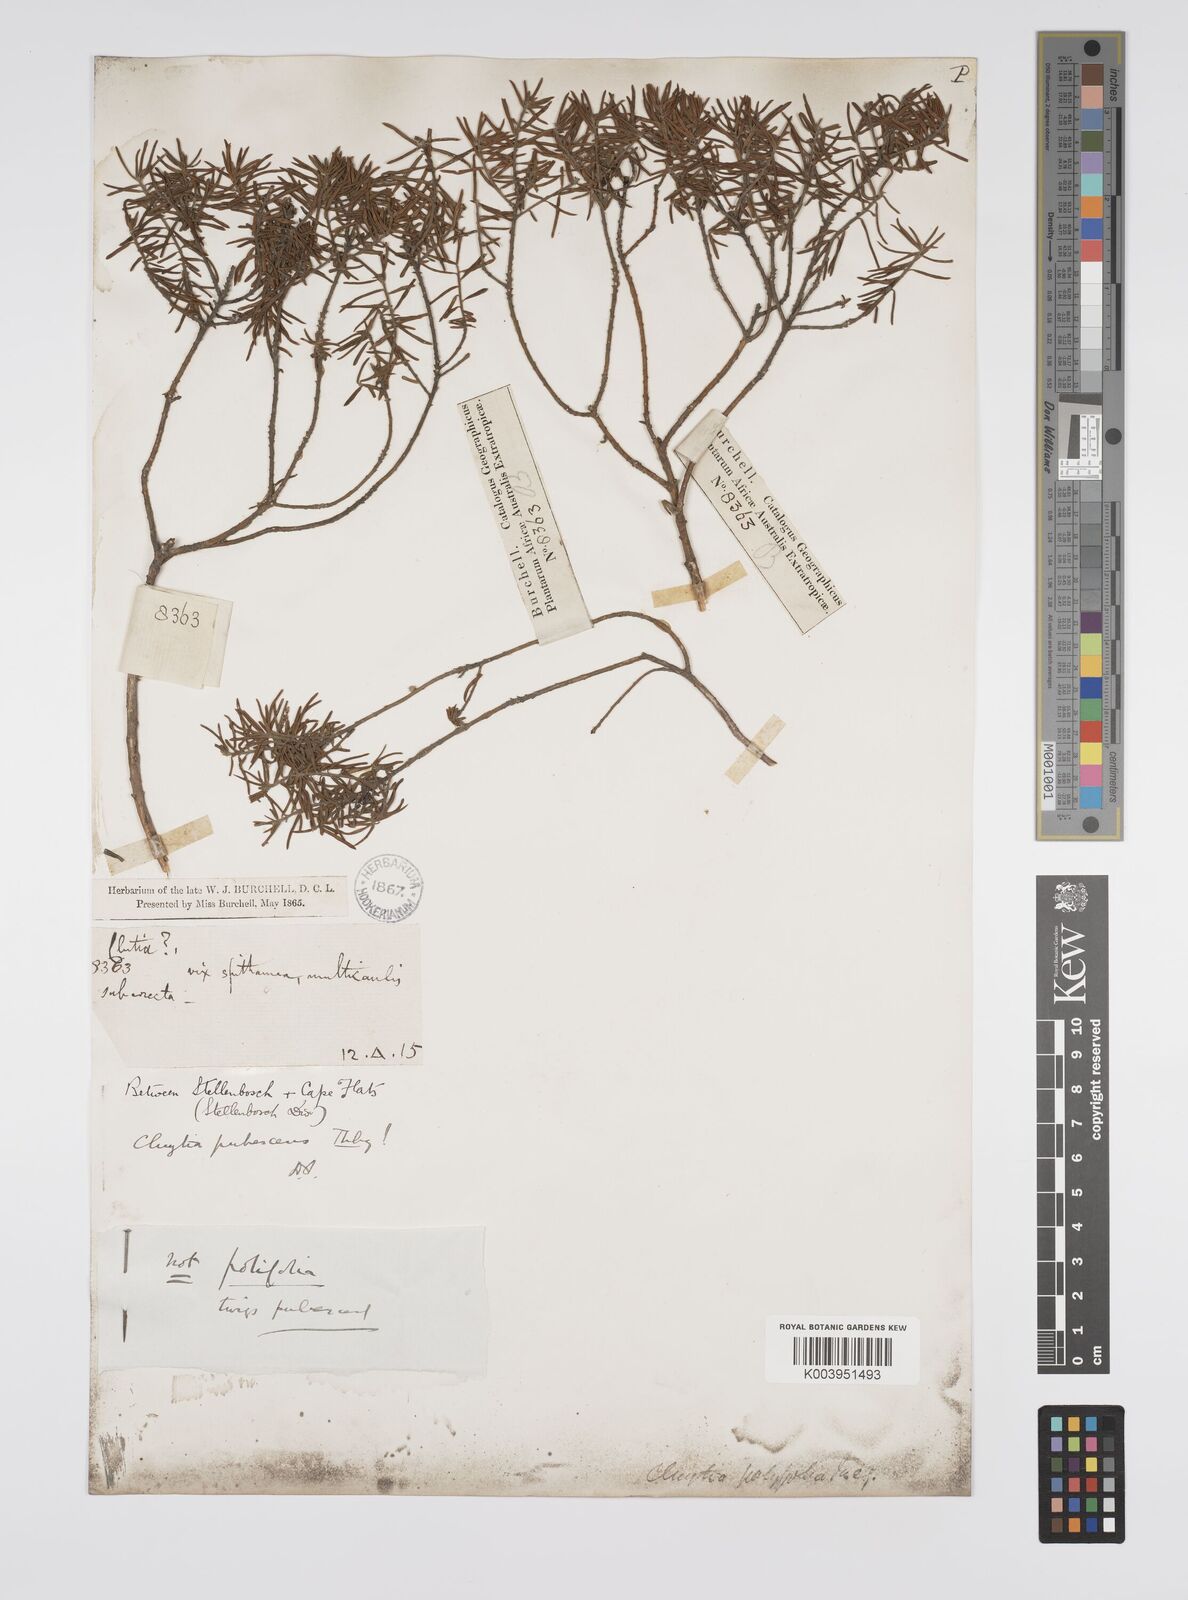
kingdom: Plantae
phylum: Tracheophyta
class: Magnoliopsida
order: Malpighiales
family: Peraceae
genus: Clutia
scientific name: Clutia
